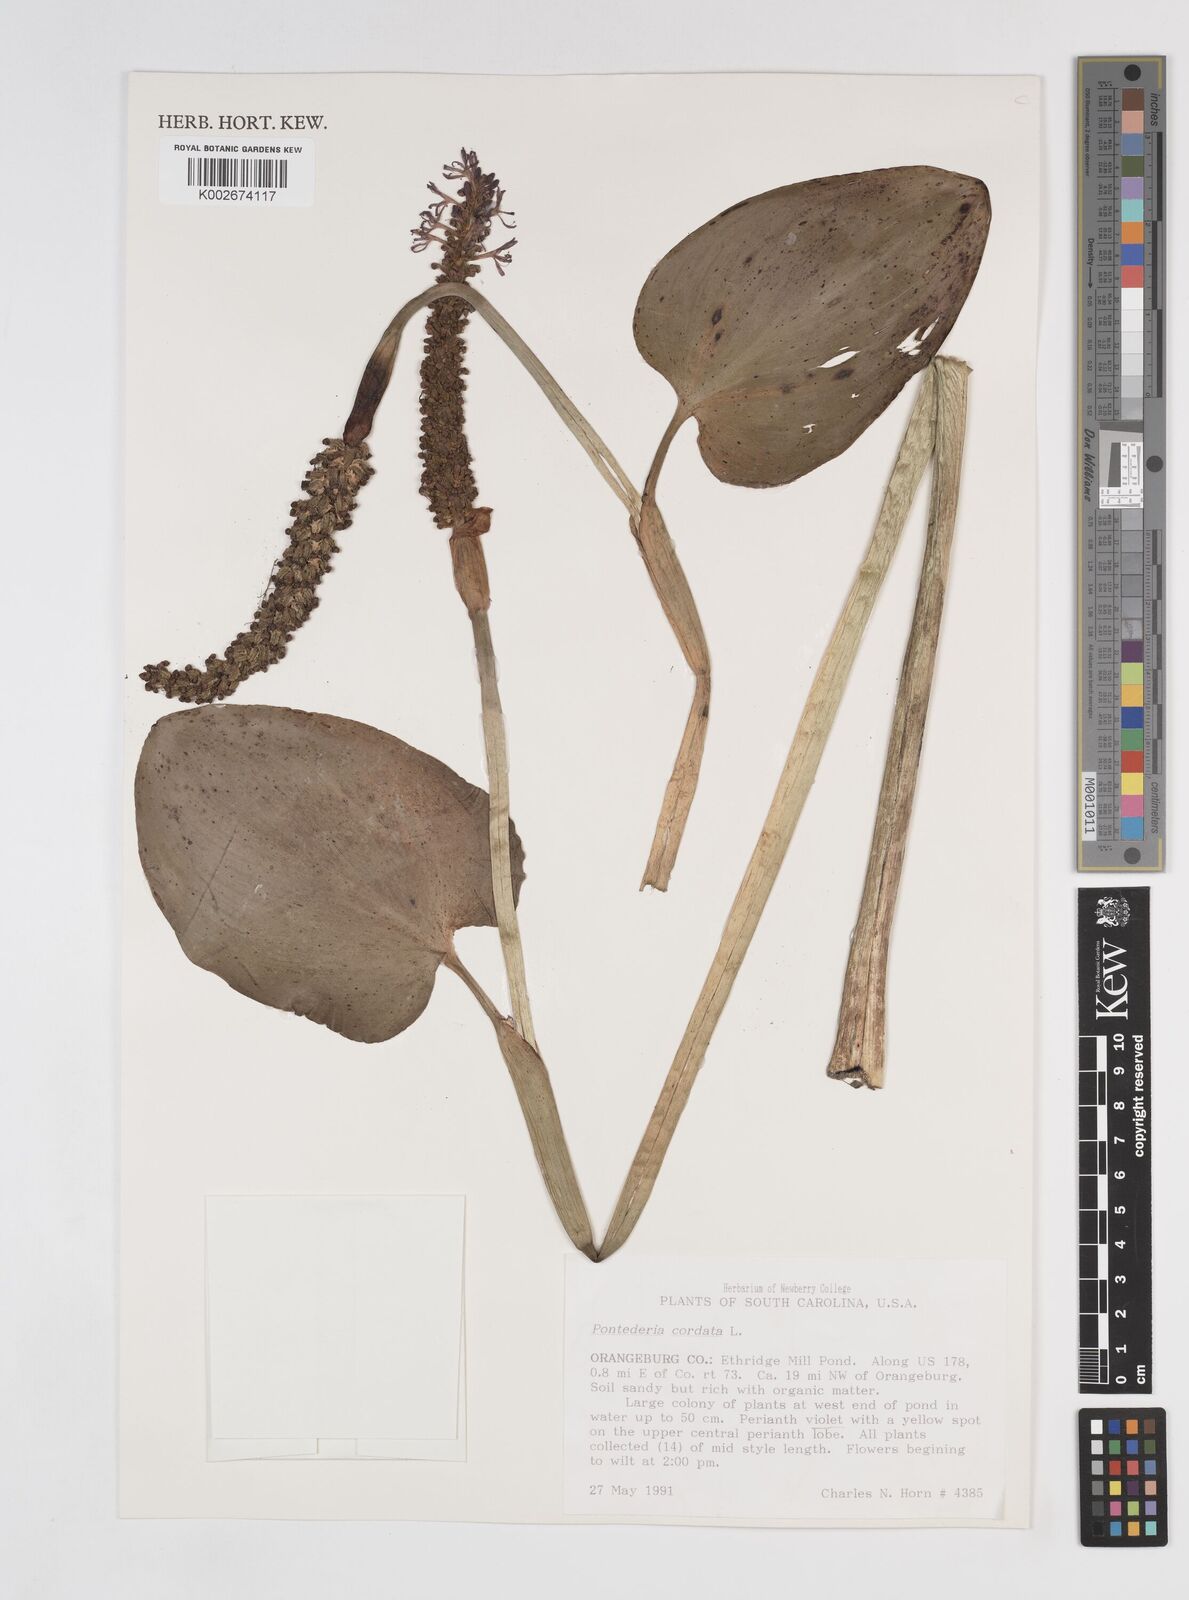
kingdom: Plantae
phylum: Tracheophyta
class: Liliopsida
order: Commelinales
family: Pontederiaceae
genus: Pontederia
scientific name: Pontederia cordata
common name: Pickerelweed
